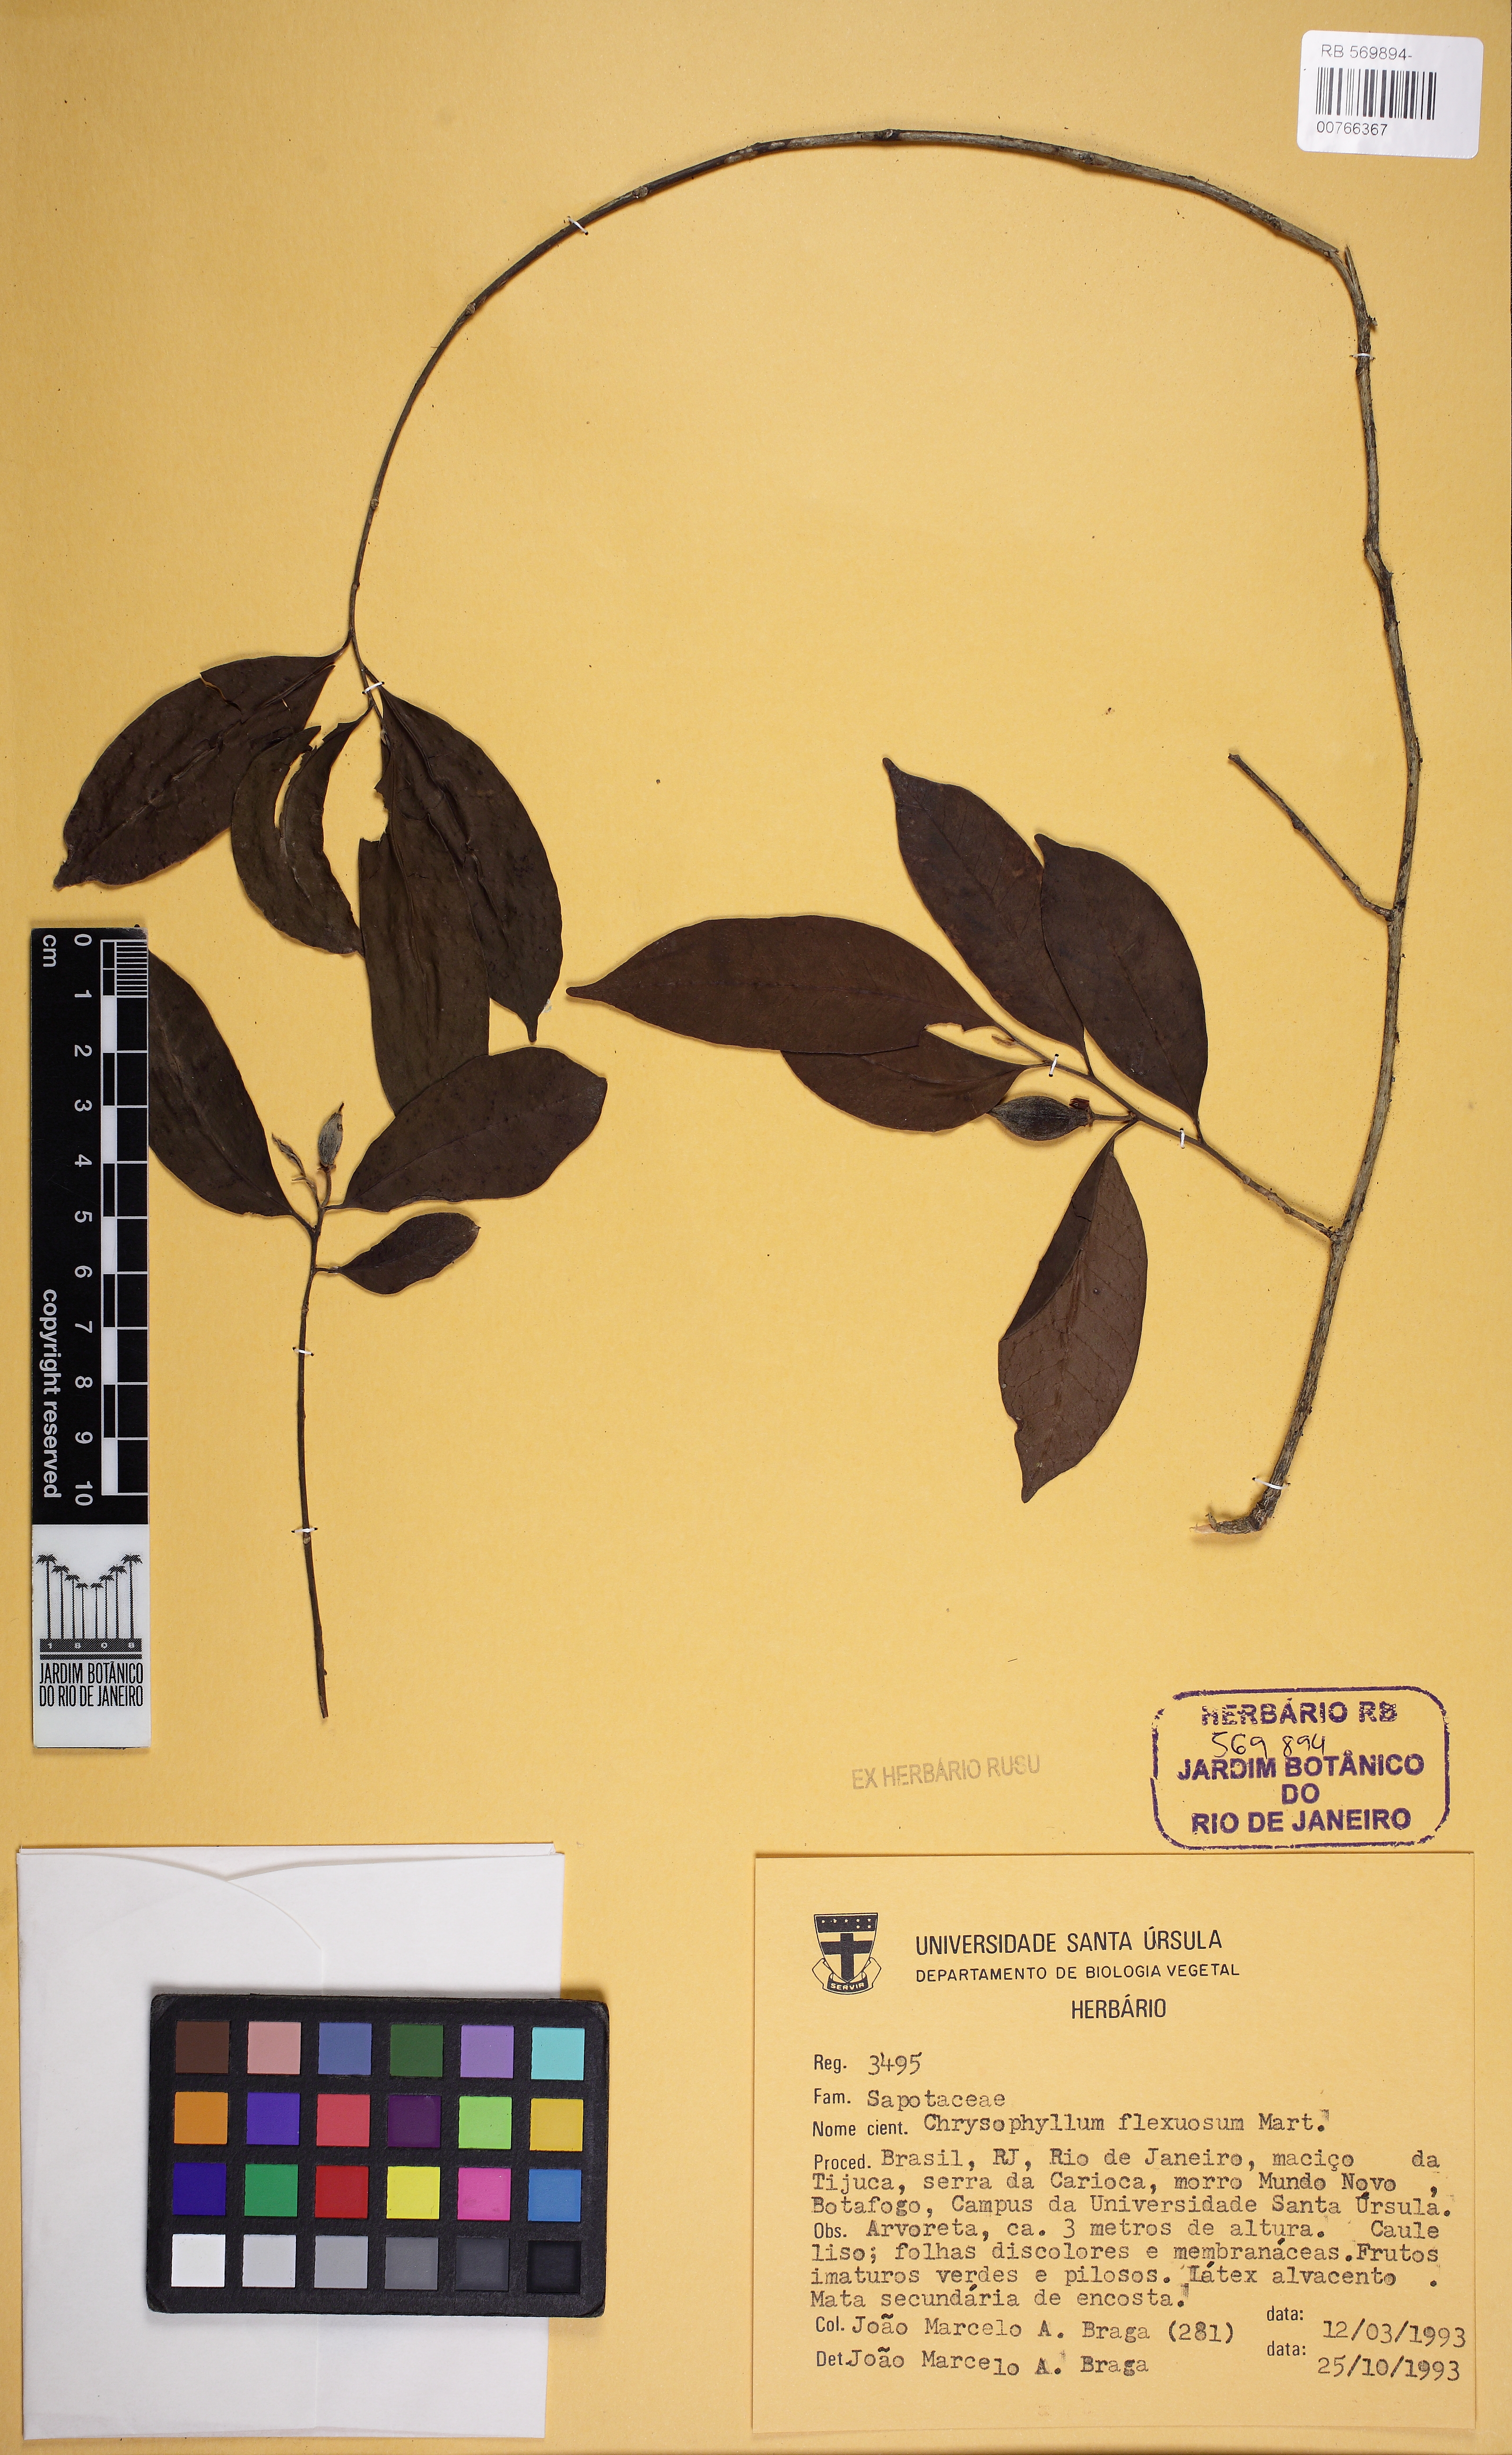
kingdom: Plantae
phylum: Tracheophyta
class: Magnoliopsida
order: Ericales
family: Sapotaceae
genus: Chrysophyllum
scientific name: Chrysophyllum flexuosum
